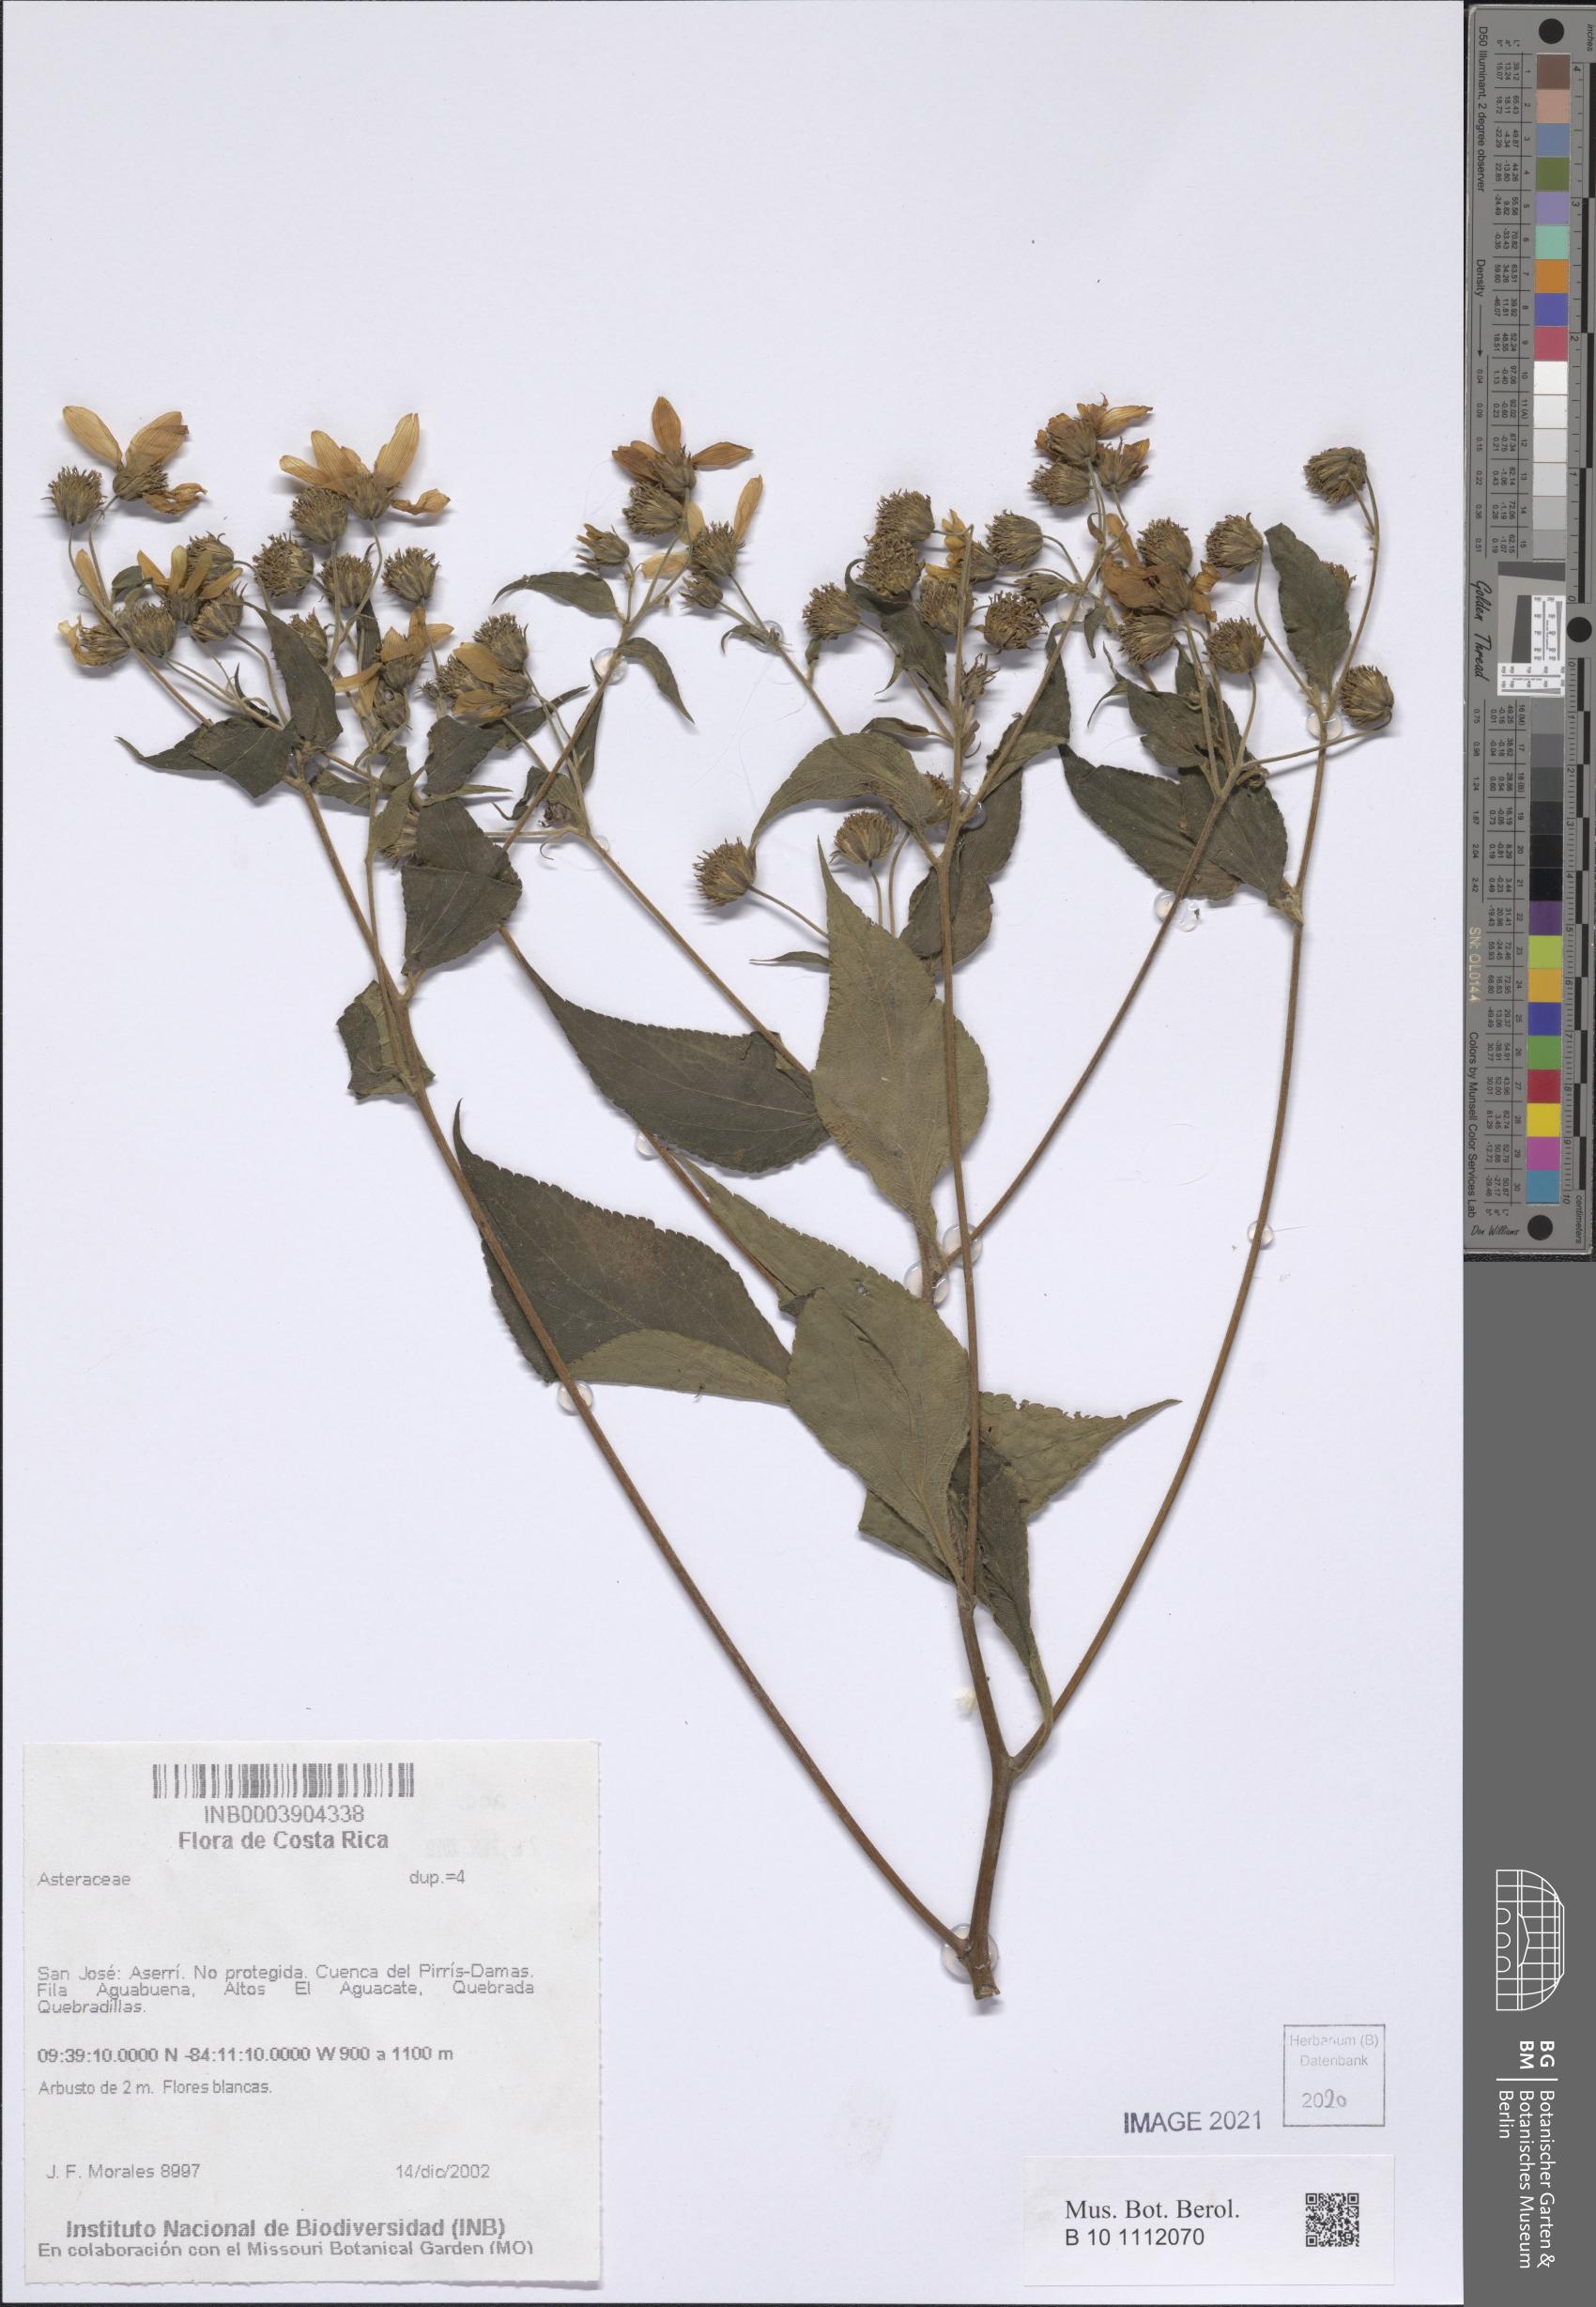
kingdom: Plantae
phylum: Tracheophyta
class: Magnoliopsida
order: Asterales
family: Asteraceae
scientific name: Asteraceae
